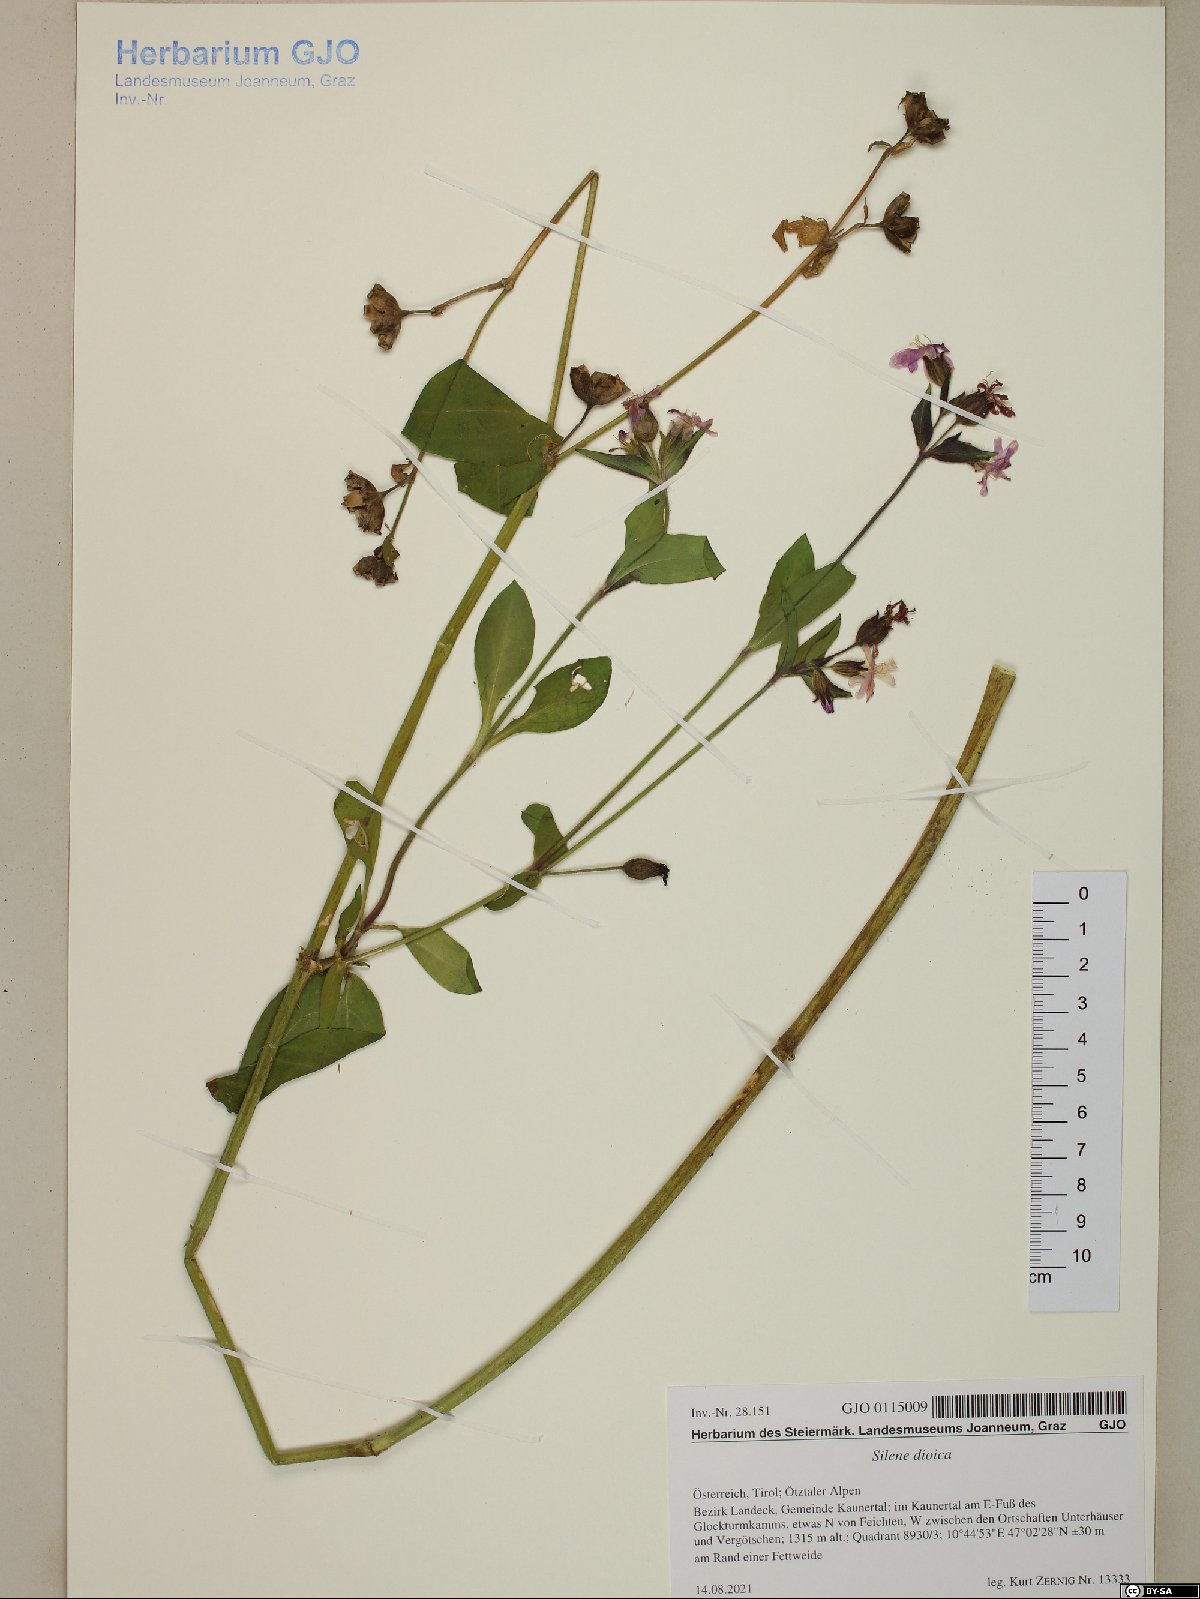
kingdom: Plantae
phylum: Tracheophyta
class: Magnoliopsida
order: Caryophyllales
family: Caryophyllaceae
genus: Silene
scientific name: Silene dioica
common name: Red campion
